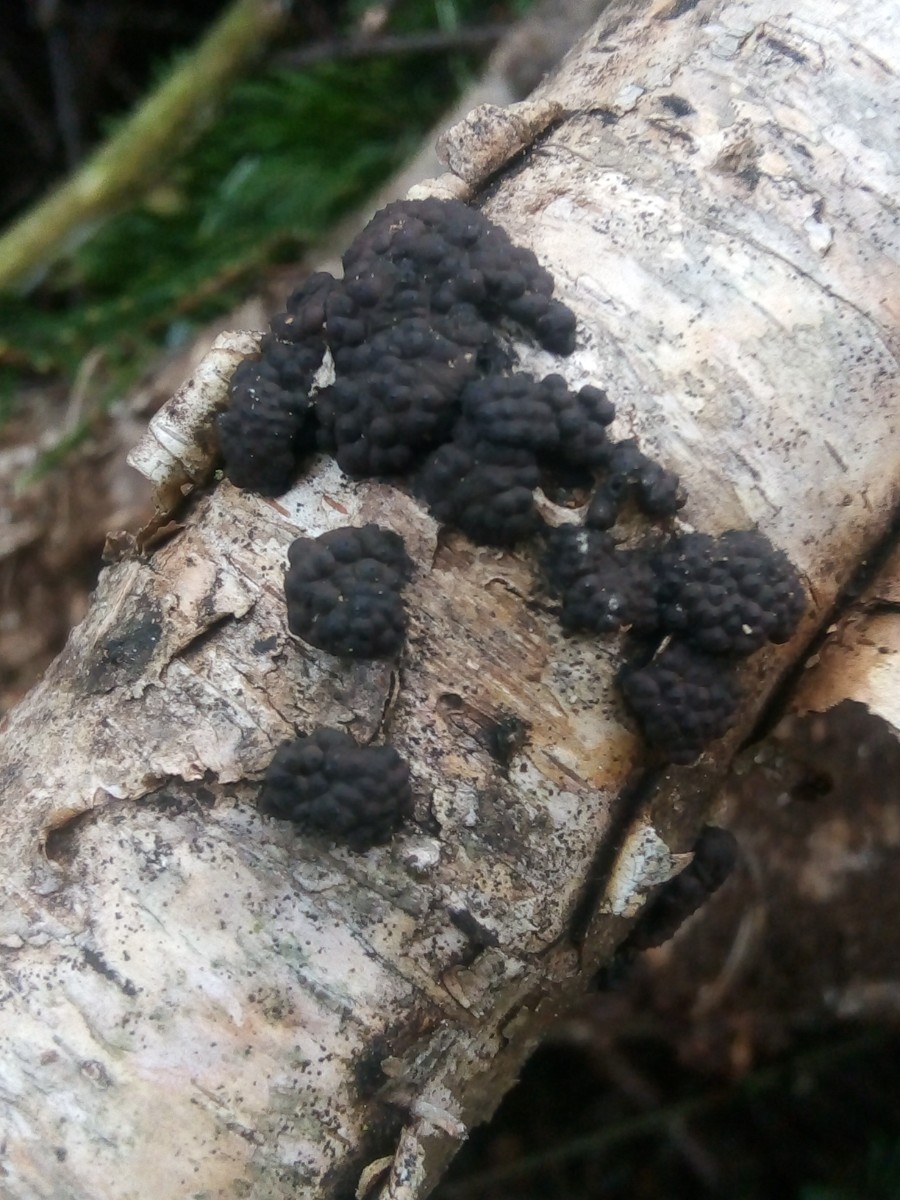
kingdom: Fungi
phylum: Ascomycota
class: Sordariomycetes
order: Xylariales
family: Hypoxylaceae
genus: Jackrogersella
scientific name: Jackrogersella multiformis
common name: foranderlig kulbær
